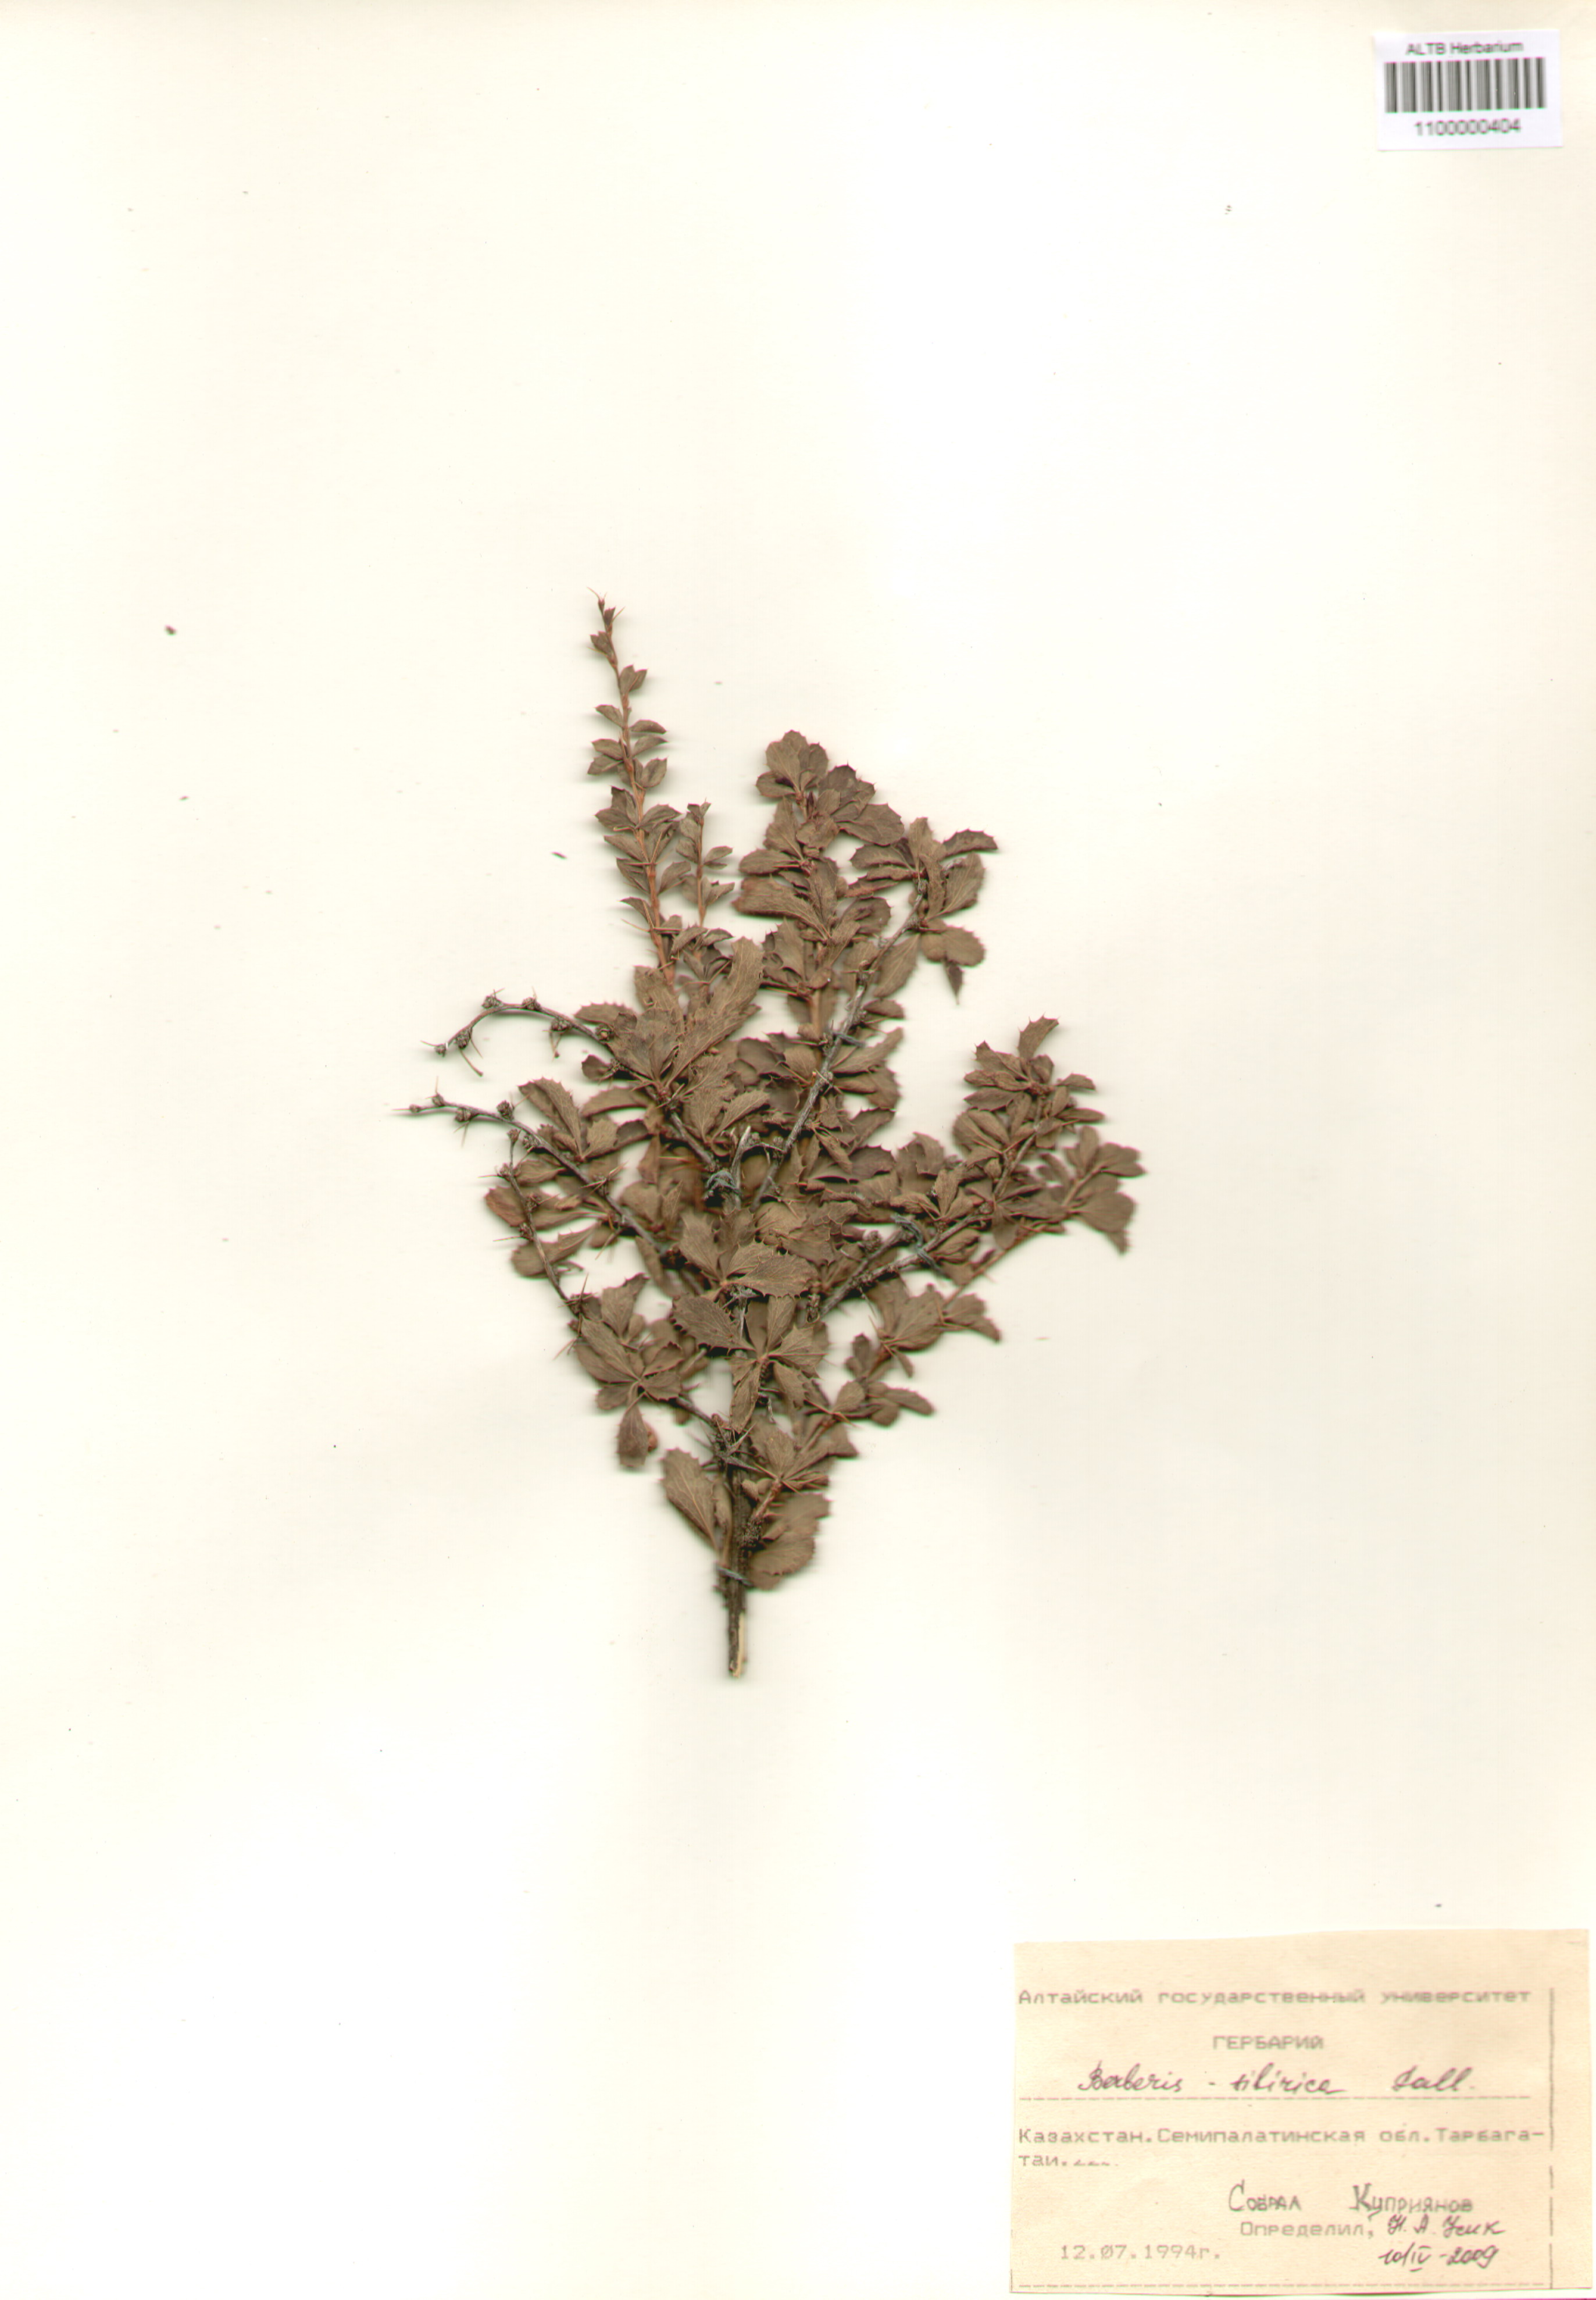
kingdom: Plantae
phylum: Tracheophyta
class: Magnoliopsida
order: Ranunculales
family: Berberidaceae
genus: Berberis
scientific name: Berberis sibirica
